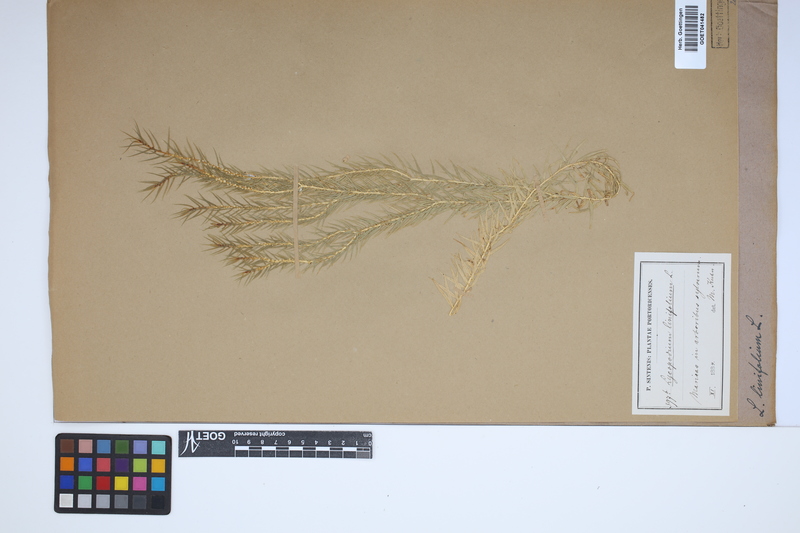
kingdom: Plantae
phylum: Tracheophyta
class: Lycopodiopsida
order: Lycopodiales
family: Lycopodiaceae
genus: Phlegmariurus
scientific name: Phlegmariurus linifolius
